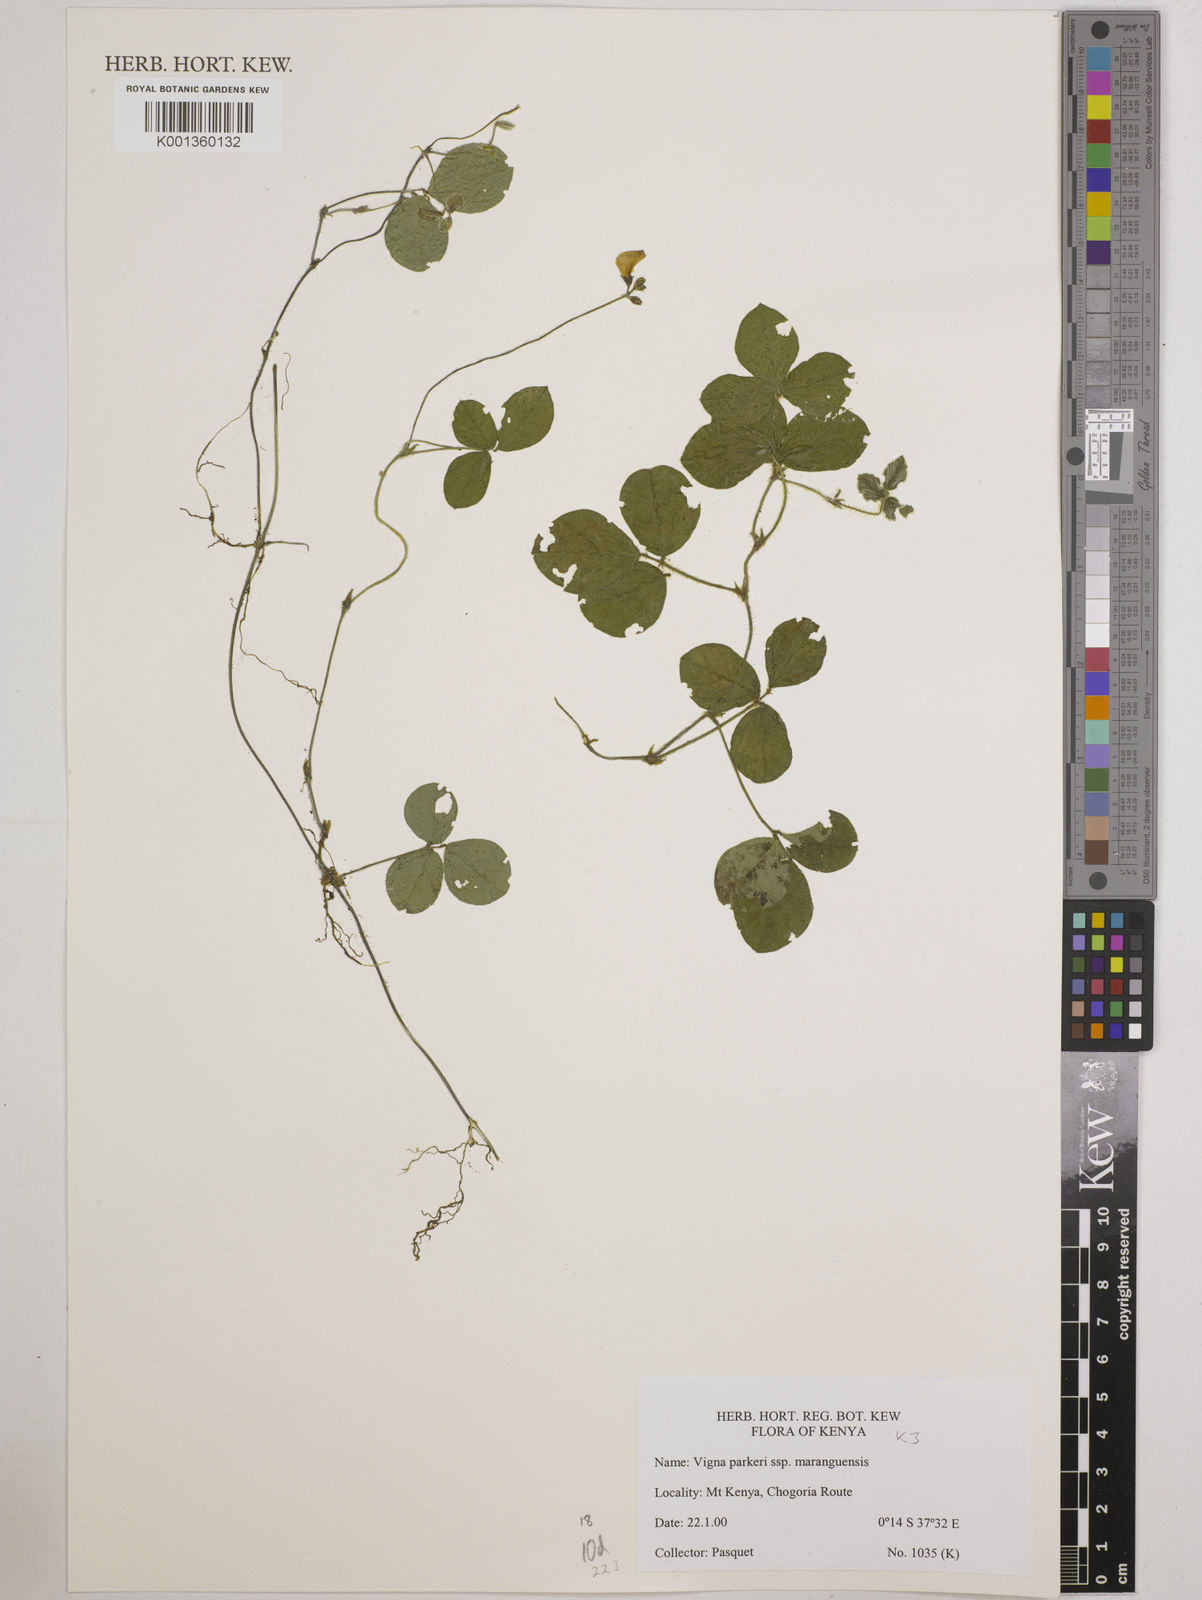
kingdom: Plantae
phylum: Tracheophyta
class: Magnoliopsida
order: Fabales
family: Fabaceae
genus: Vigna
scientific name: Vigna
